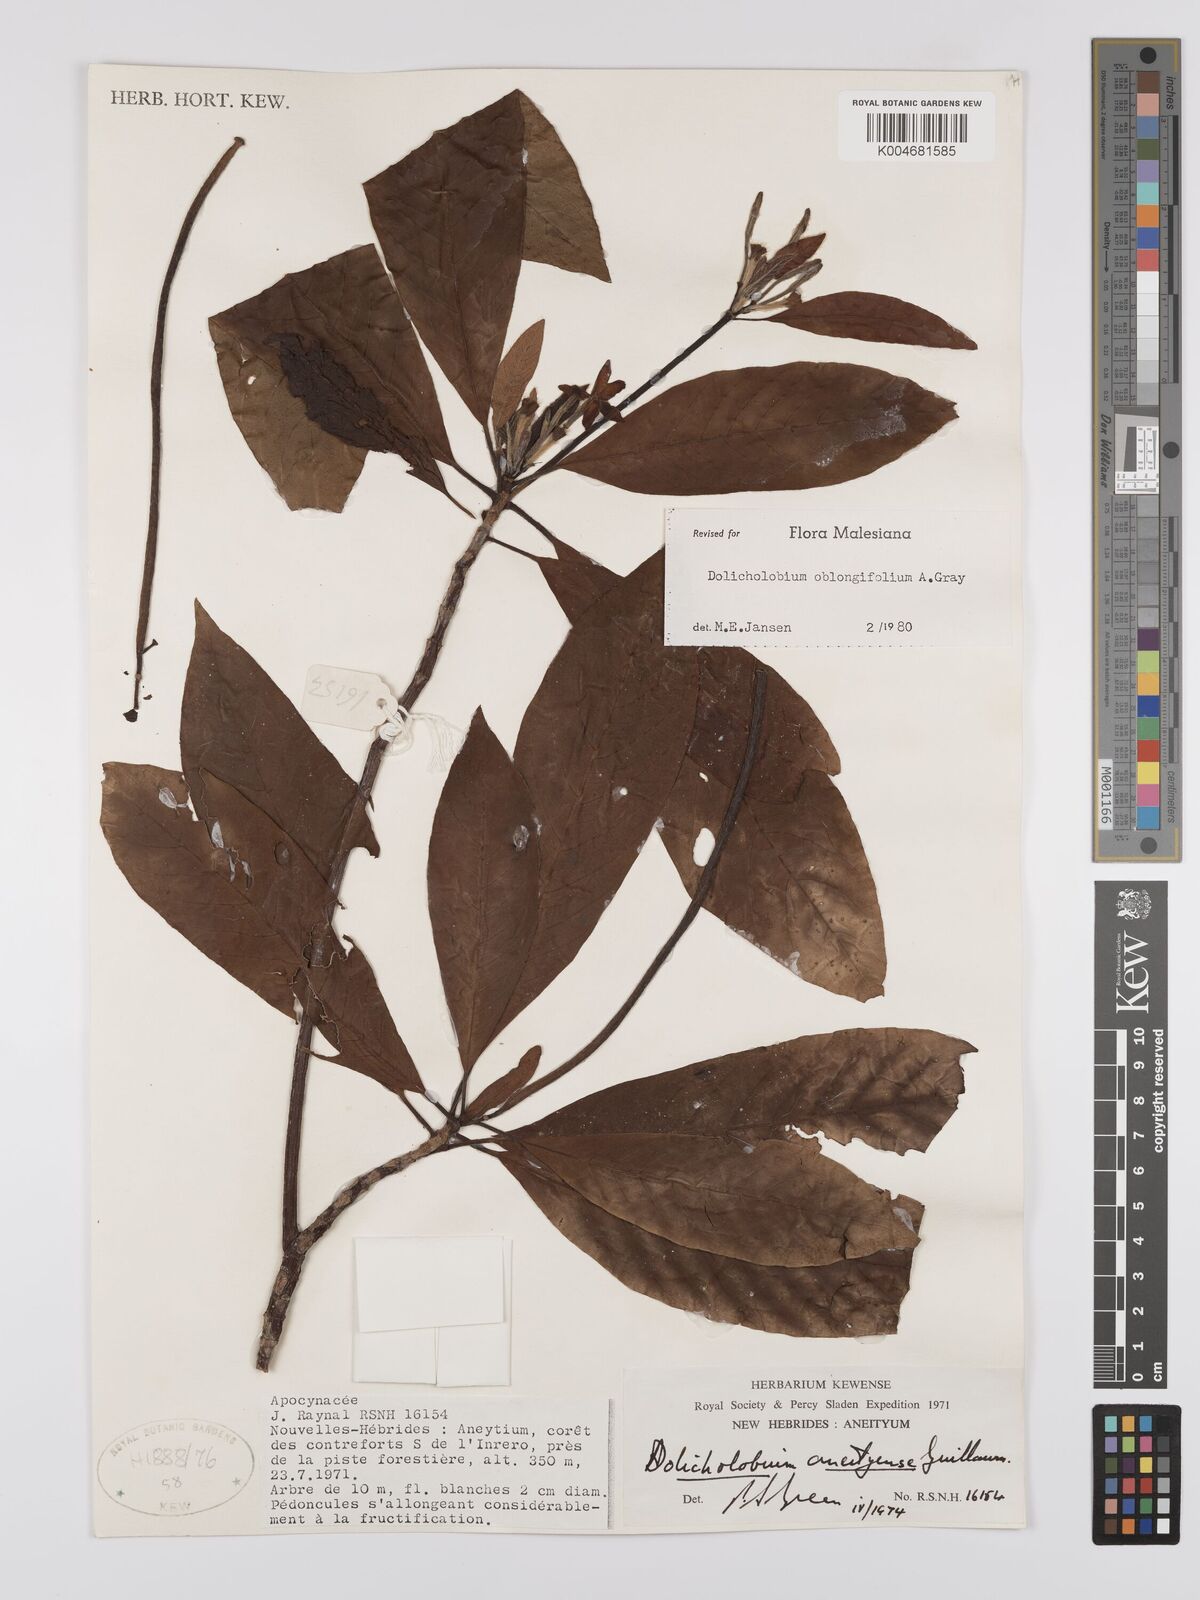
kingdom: Plantae
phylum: Tracheophyta
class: Magnoliopsida
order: Gentianales
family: Rubiaceae
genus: Dolicholobium
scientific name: Dolicholobium oblongifolium
